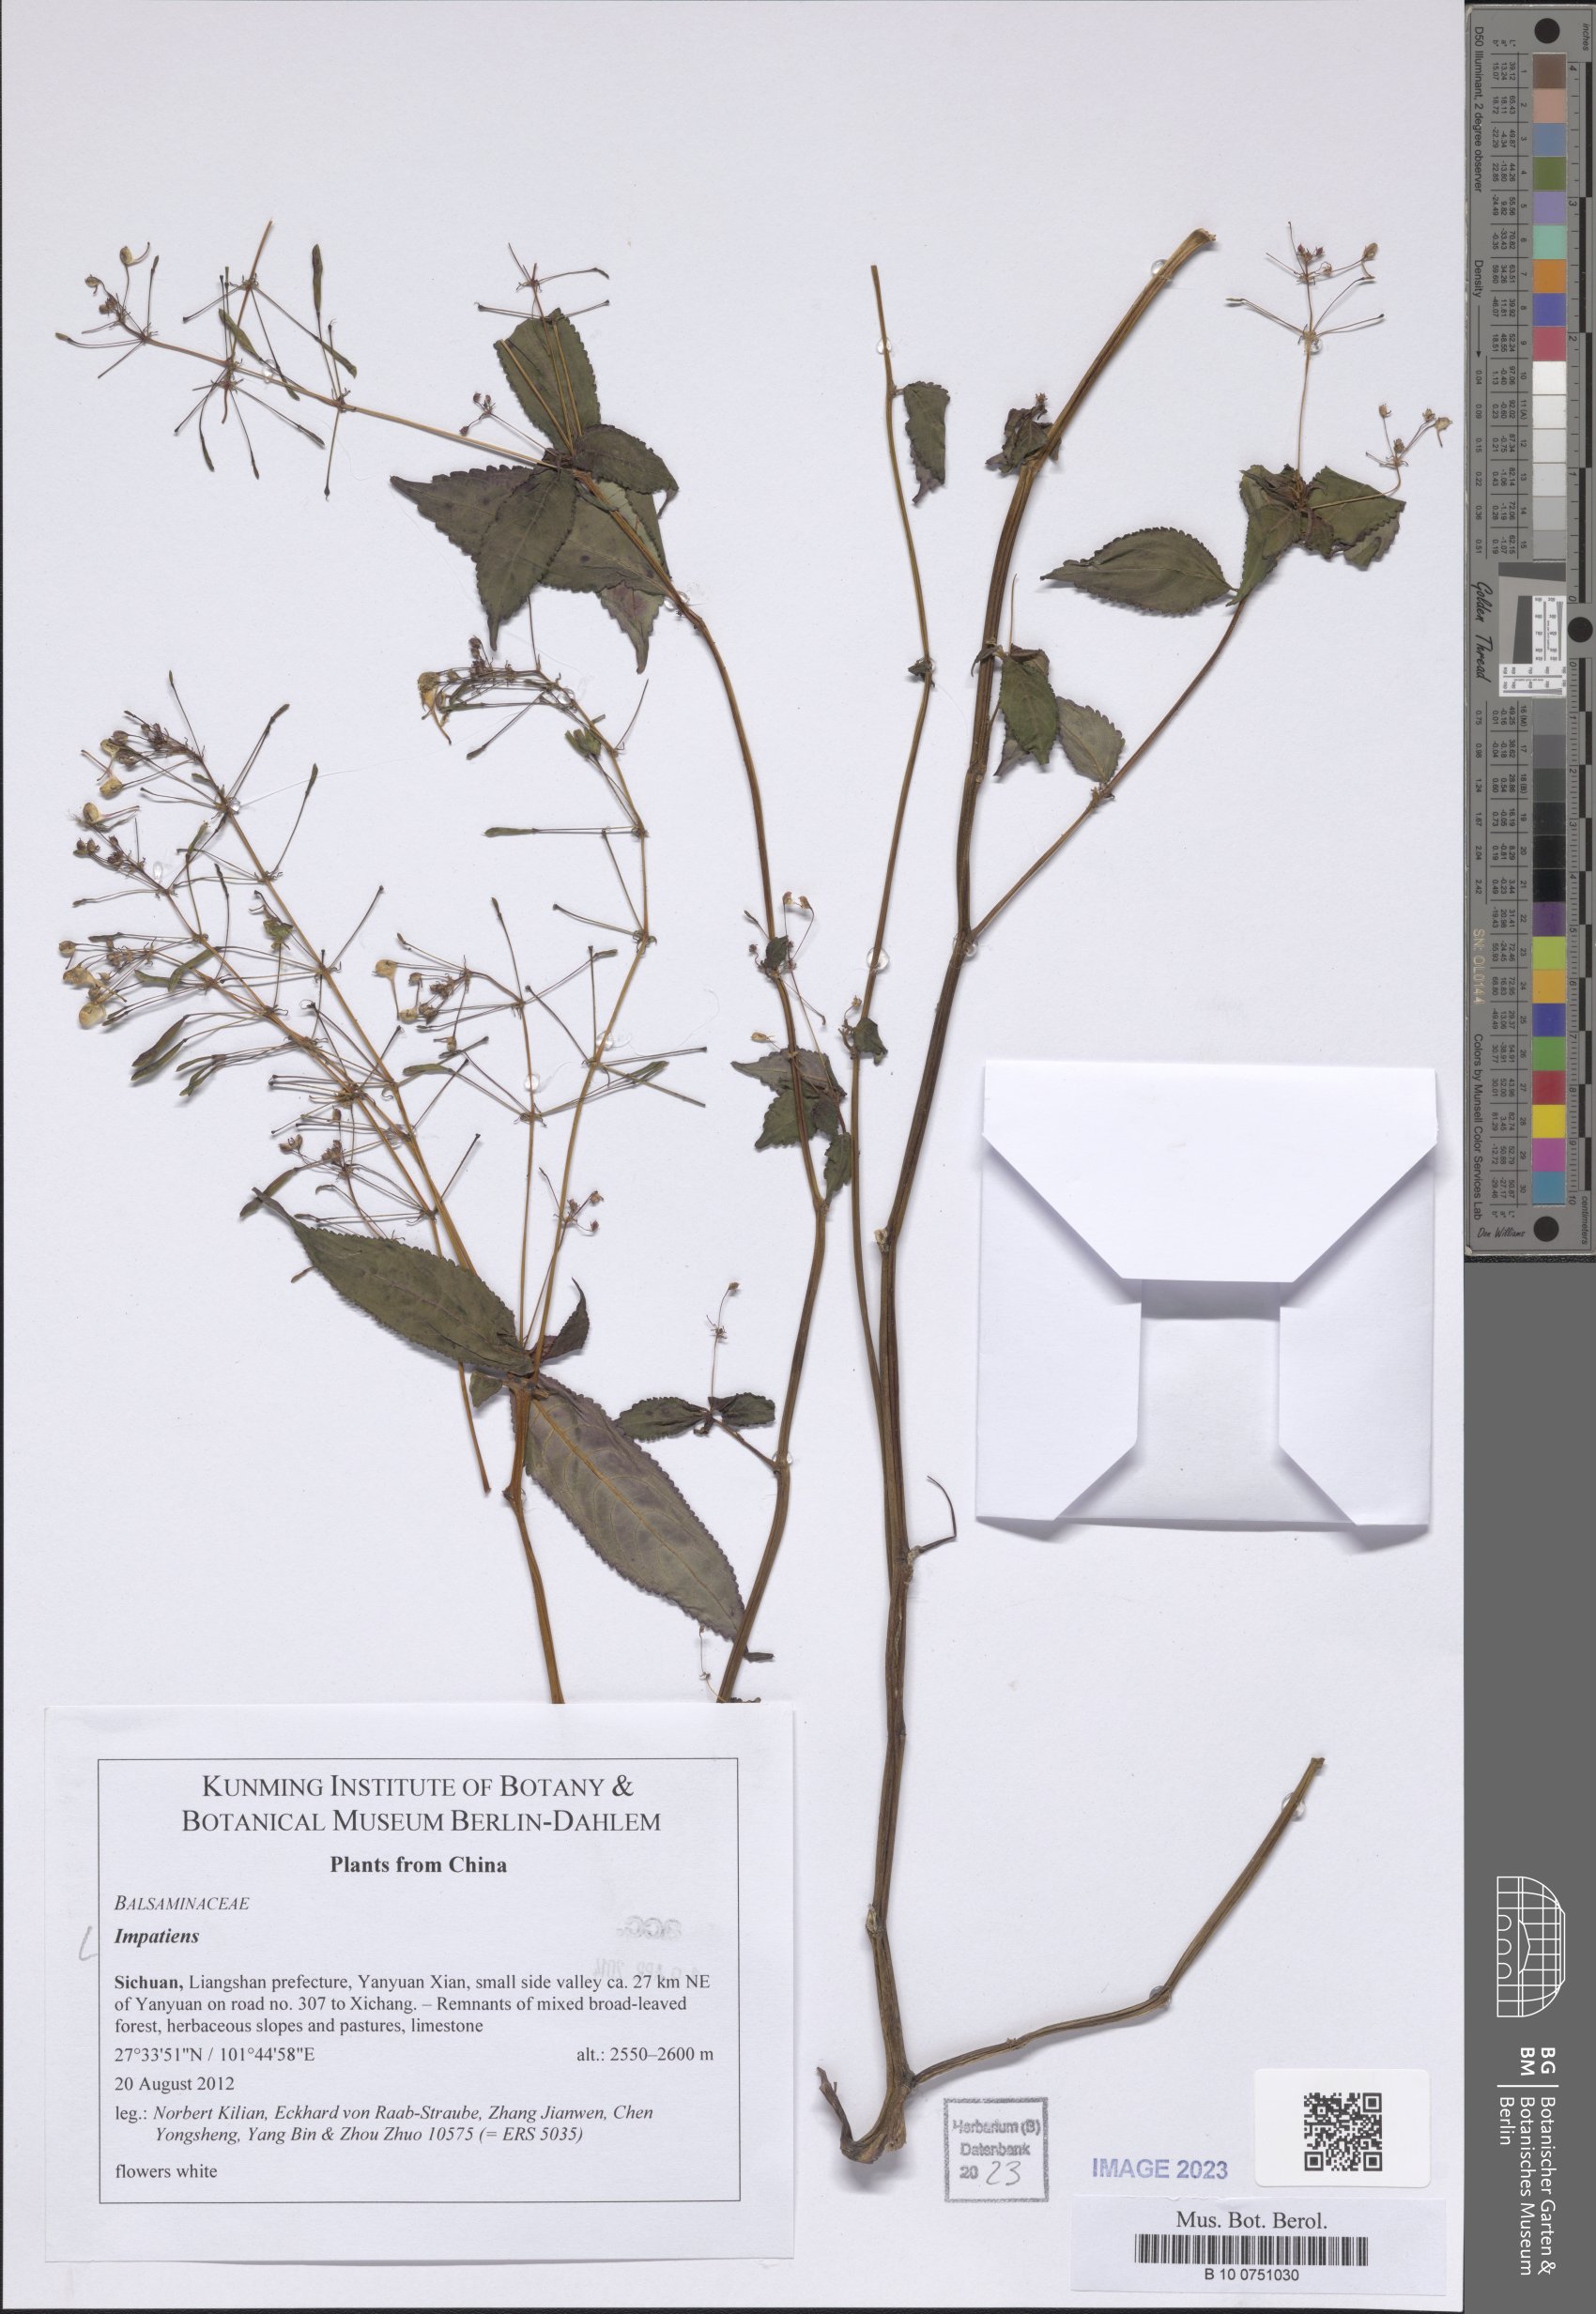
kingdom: Plantae
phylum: Tracheophyta
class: Magnoliopsida
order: Ericales
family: Balsaminaceae
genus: Impatiens
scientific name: Impatiens
